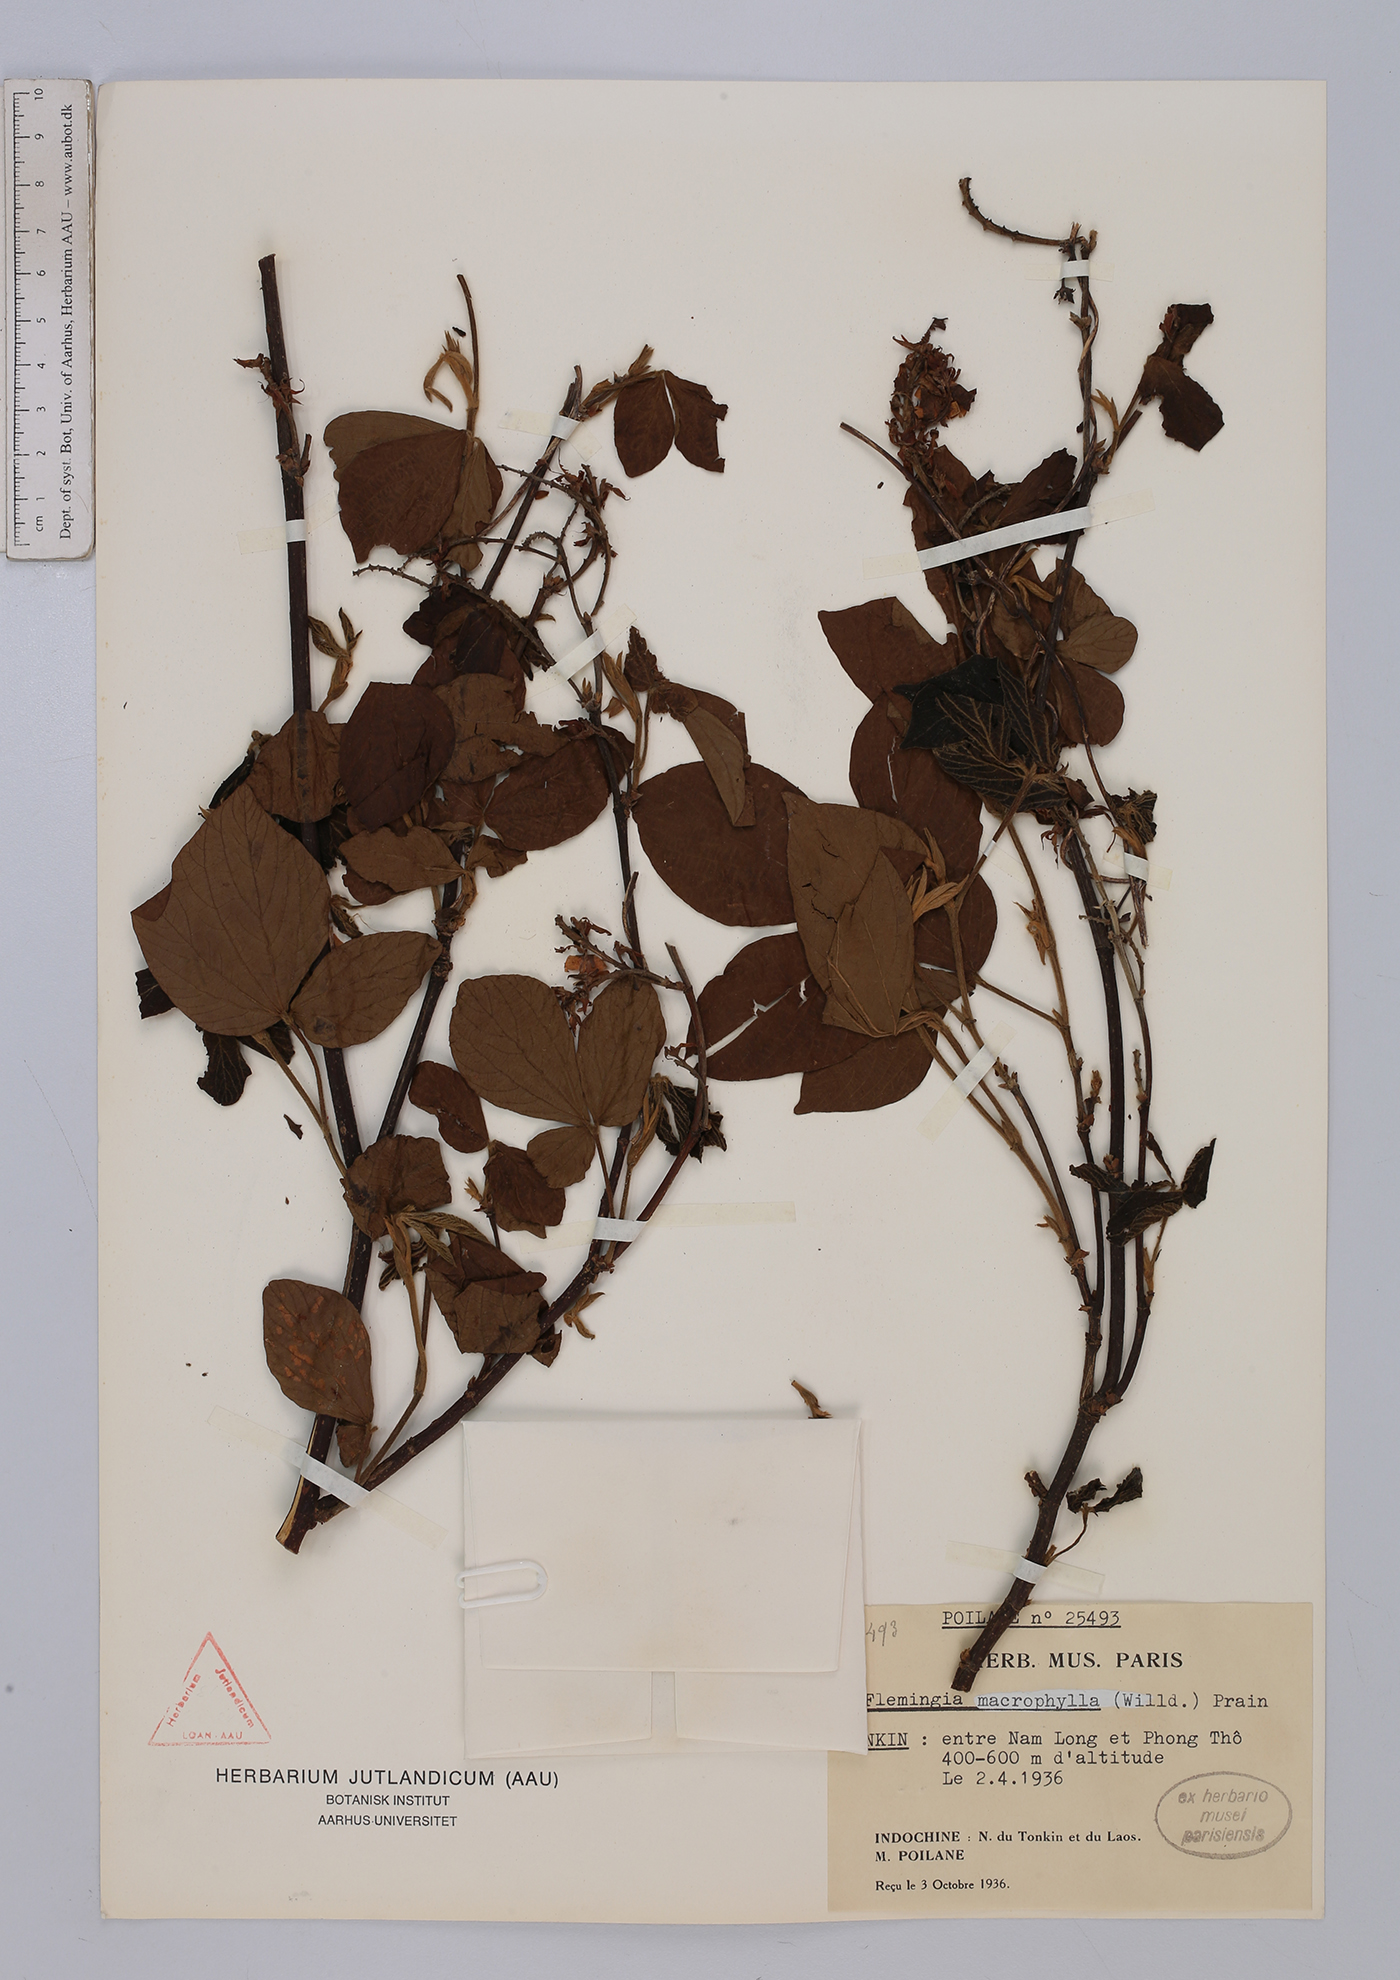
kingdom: Plantae
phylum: Tracheophyta
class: Magnoliopsida
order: Fabales
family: Fabaceae
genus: Flemingia
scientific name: Flemingia macrophylla
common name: Flemingia
